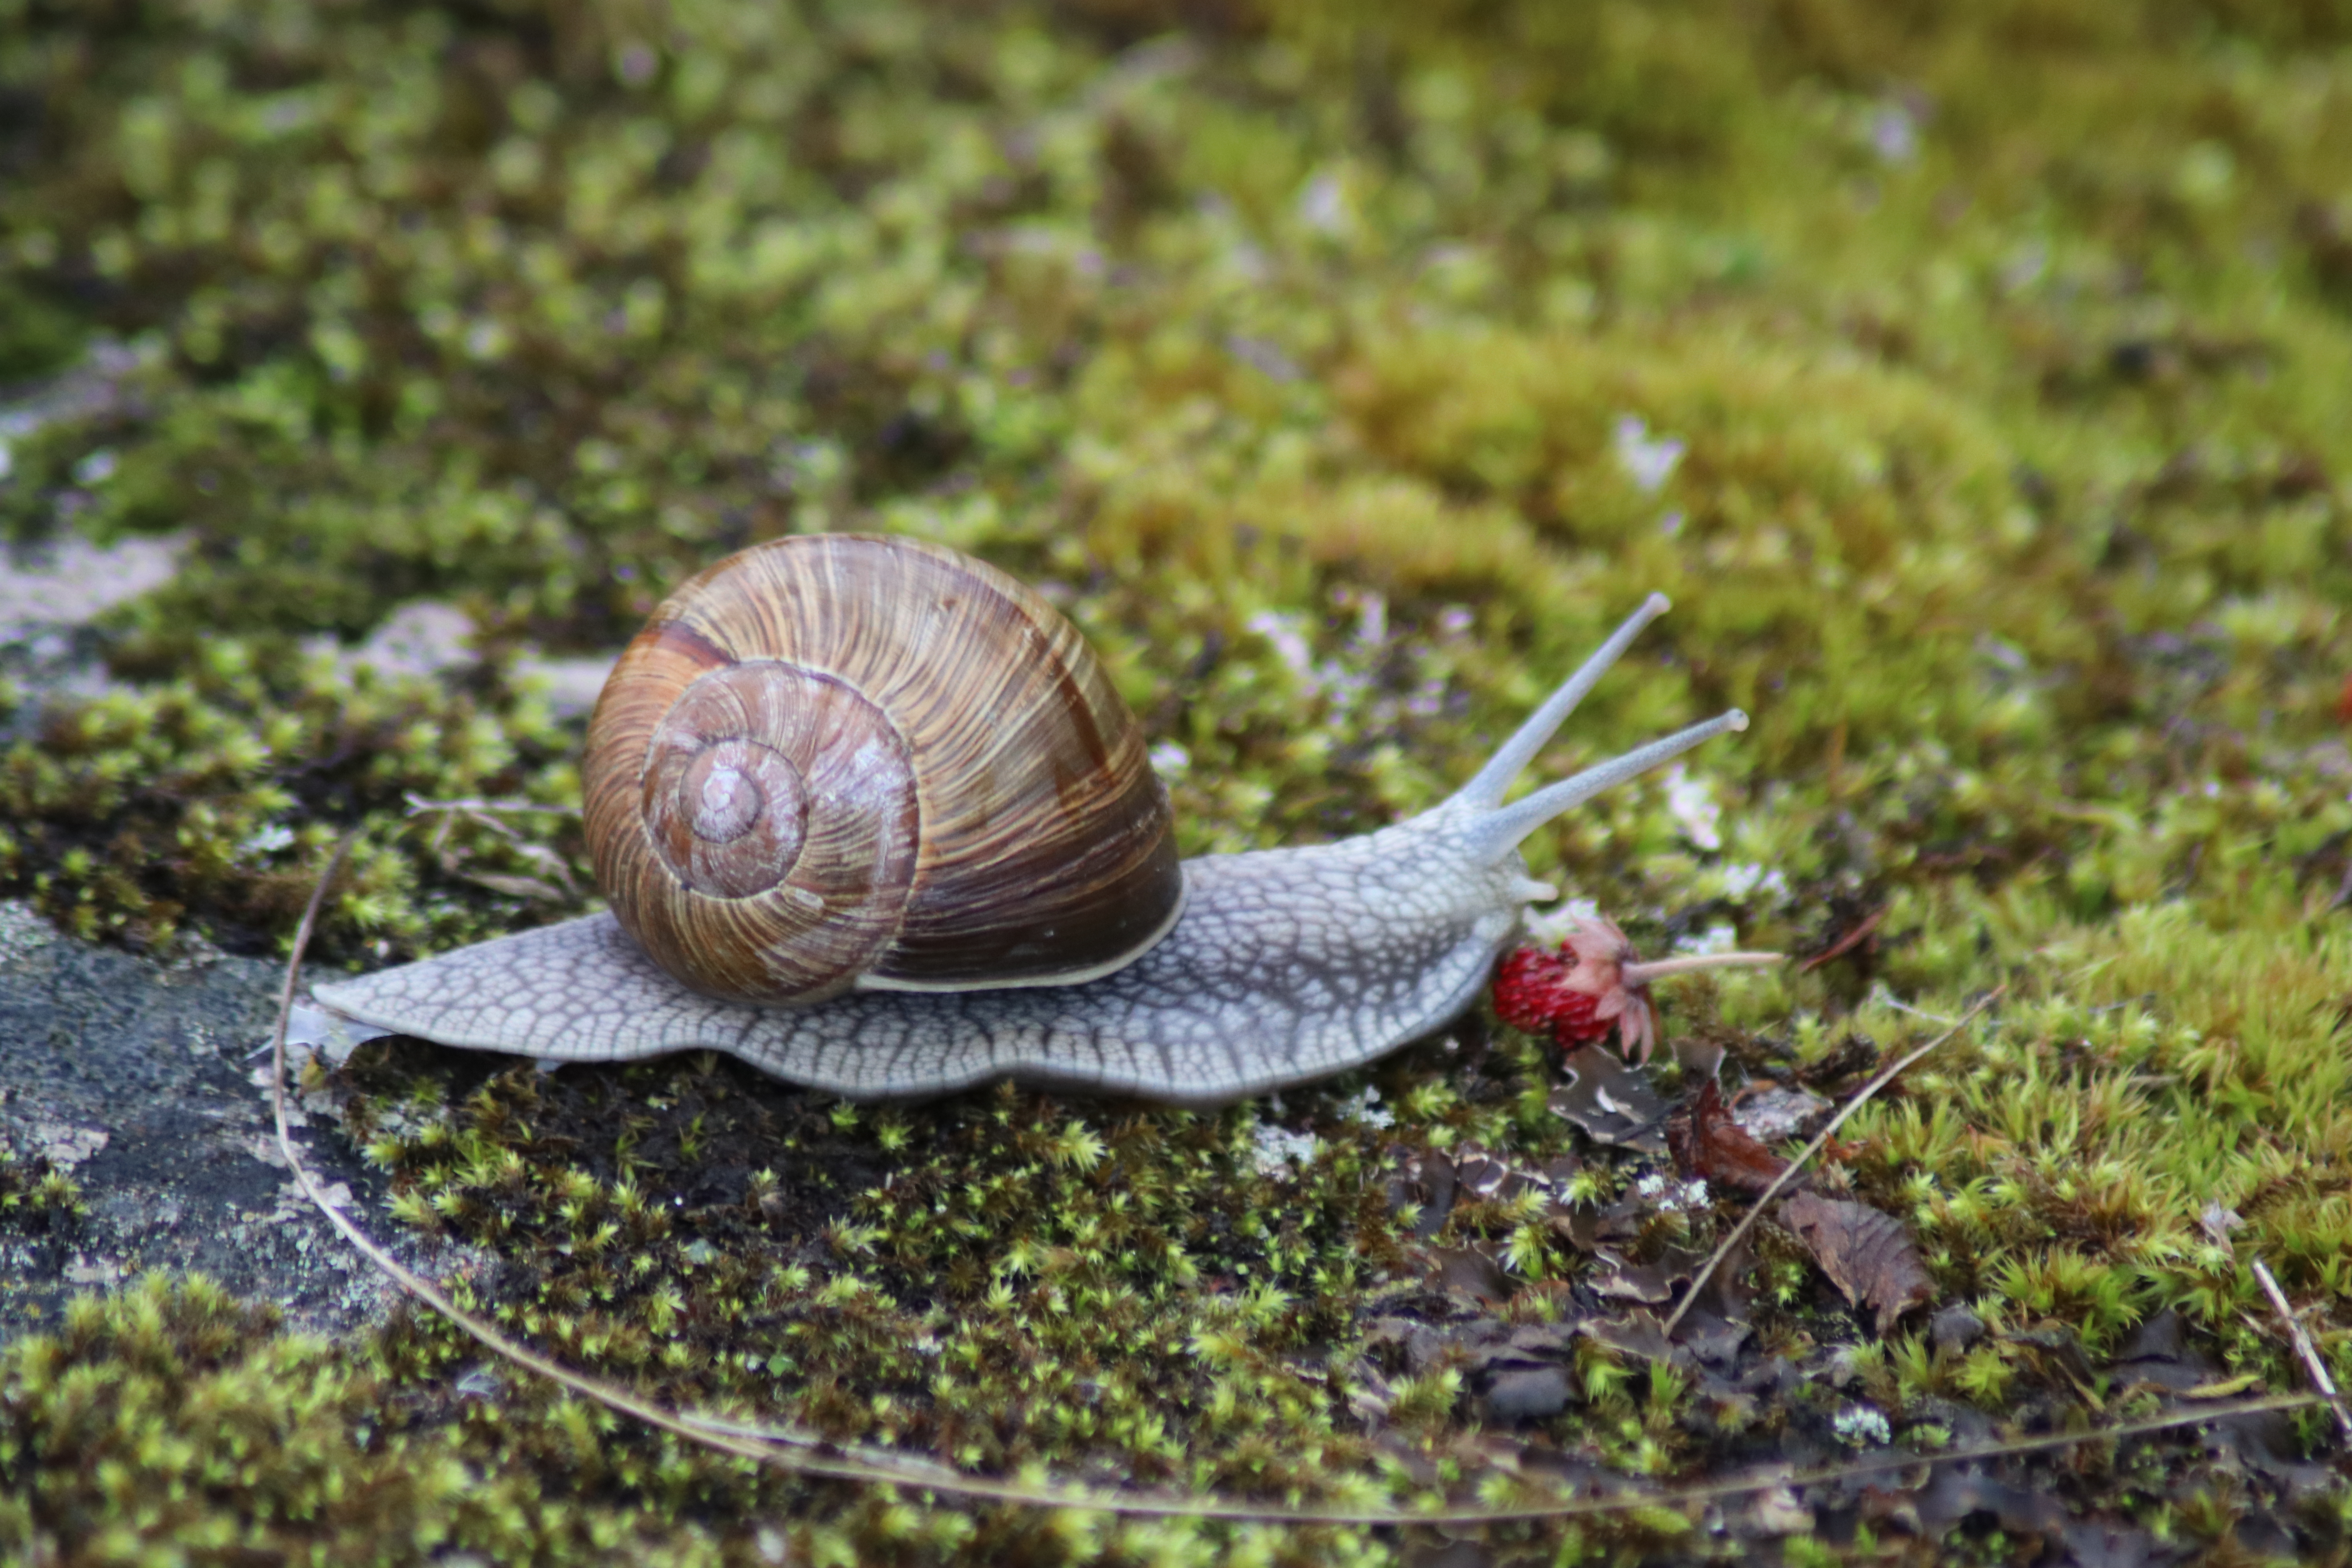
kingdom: Animalia
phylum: Mollusca
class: Gastropoda
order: Stylommatophora
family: Helicidae
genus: Helix
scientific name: Helix pomatia
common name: Roman snail
